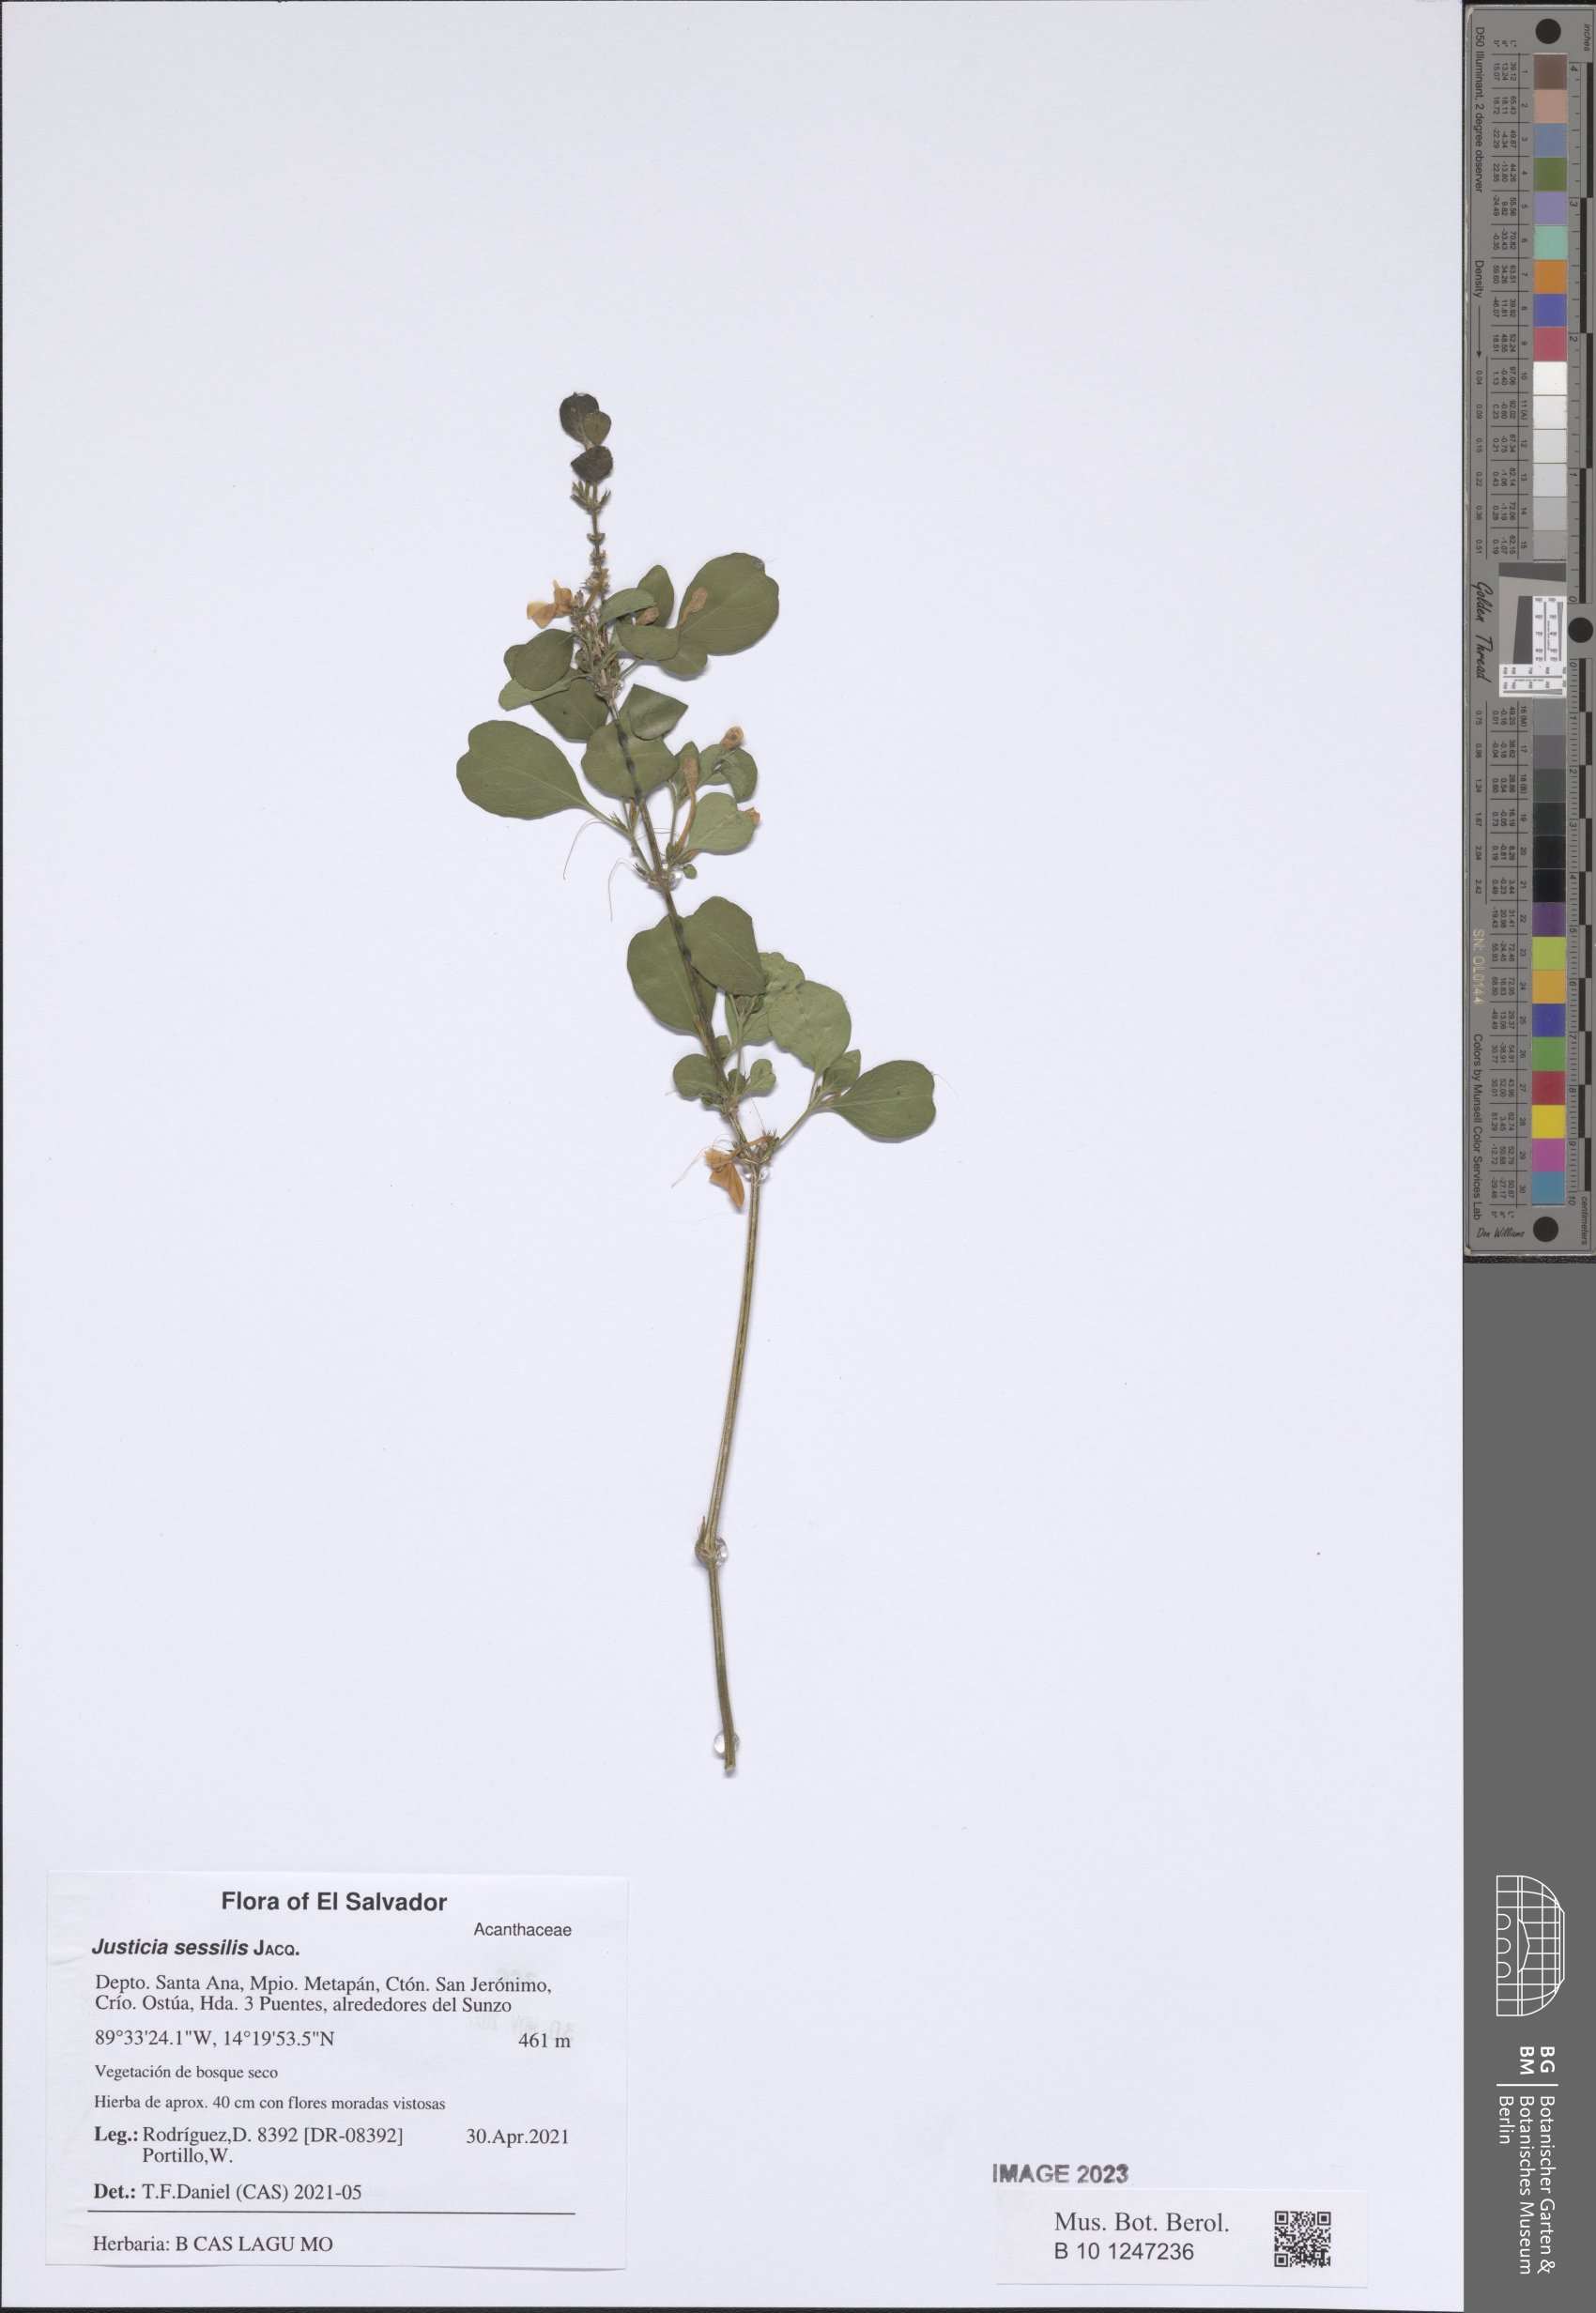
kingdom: Plantae
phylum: Tracheophyta
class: Magnoliopsida
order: Lamiales
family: Acanthaceae
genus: Dianthera
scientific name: Dianthera sessilis
